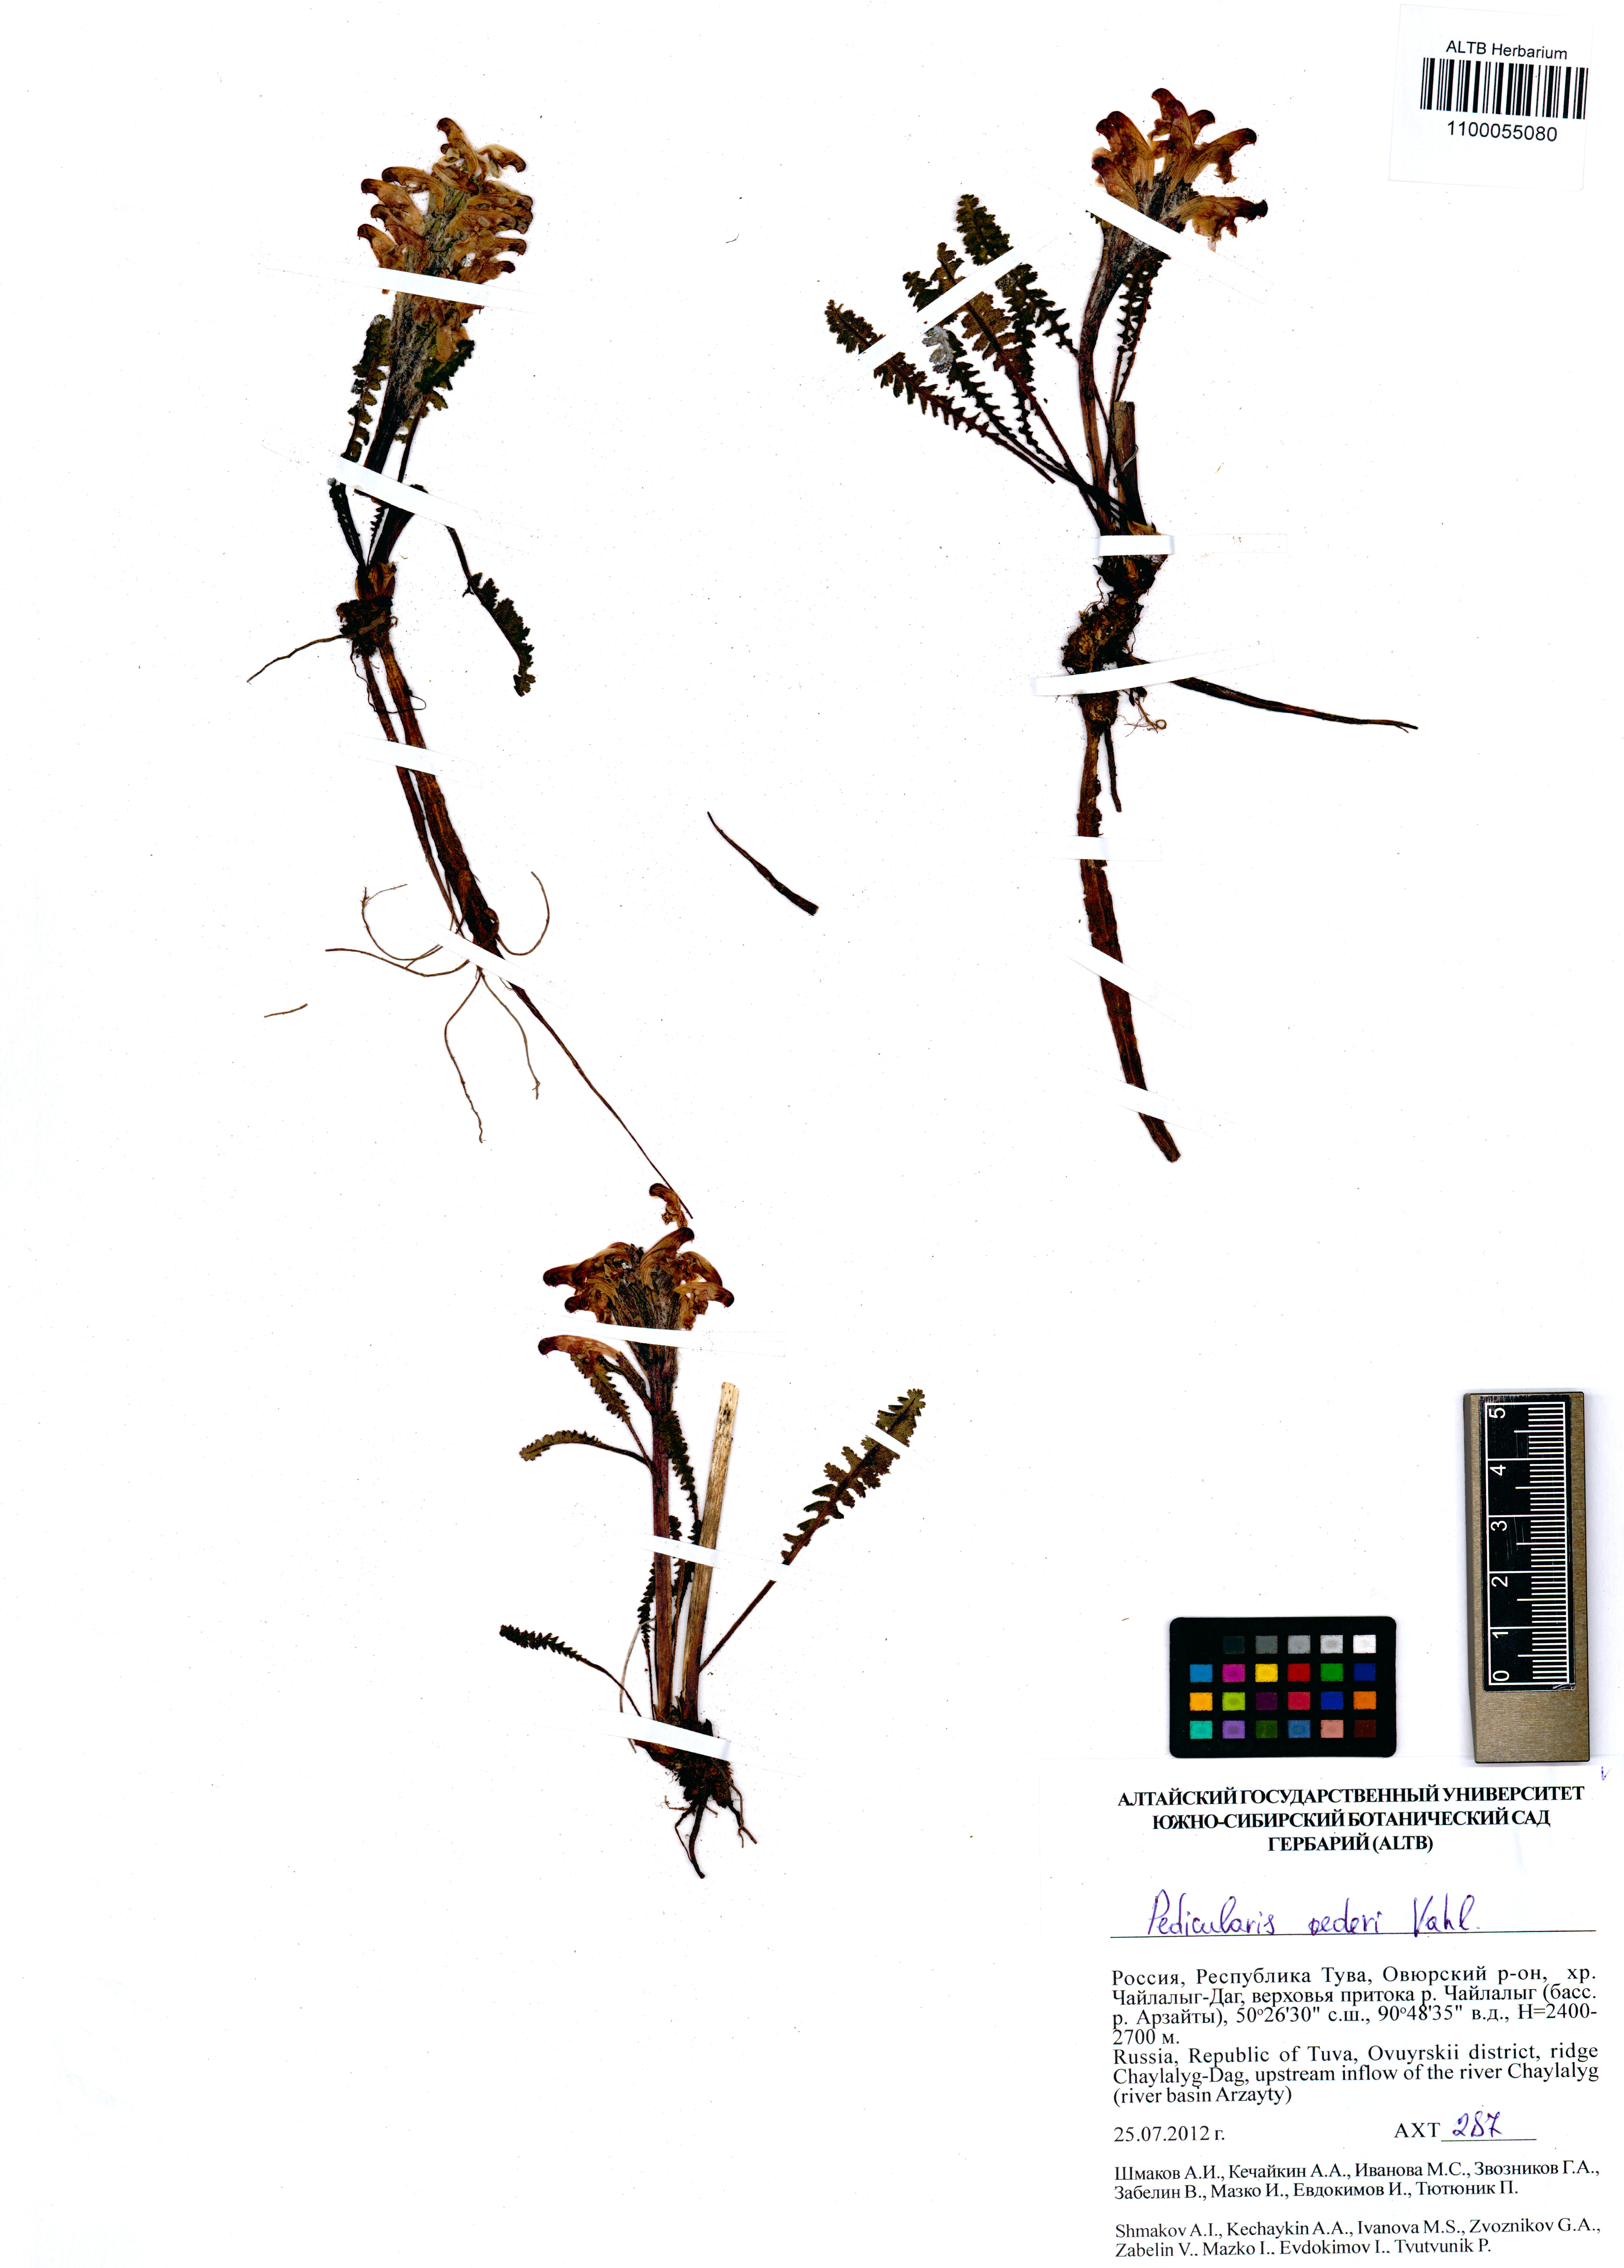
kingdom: Plantae
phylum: Tracheophyta
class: Magnoliopsida
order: Lamiales
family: Orobanchaceae
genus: Pedicularis
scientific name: Pedicularis oederi
